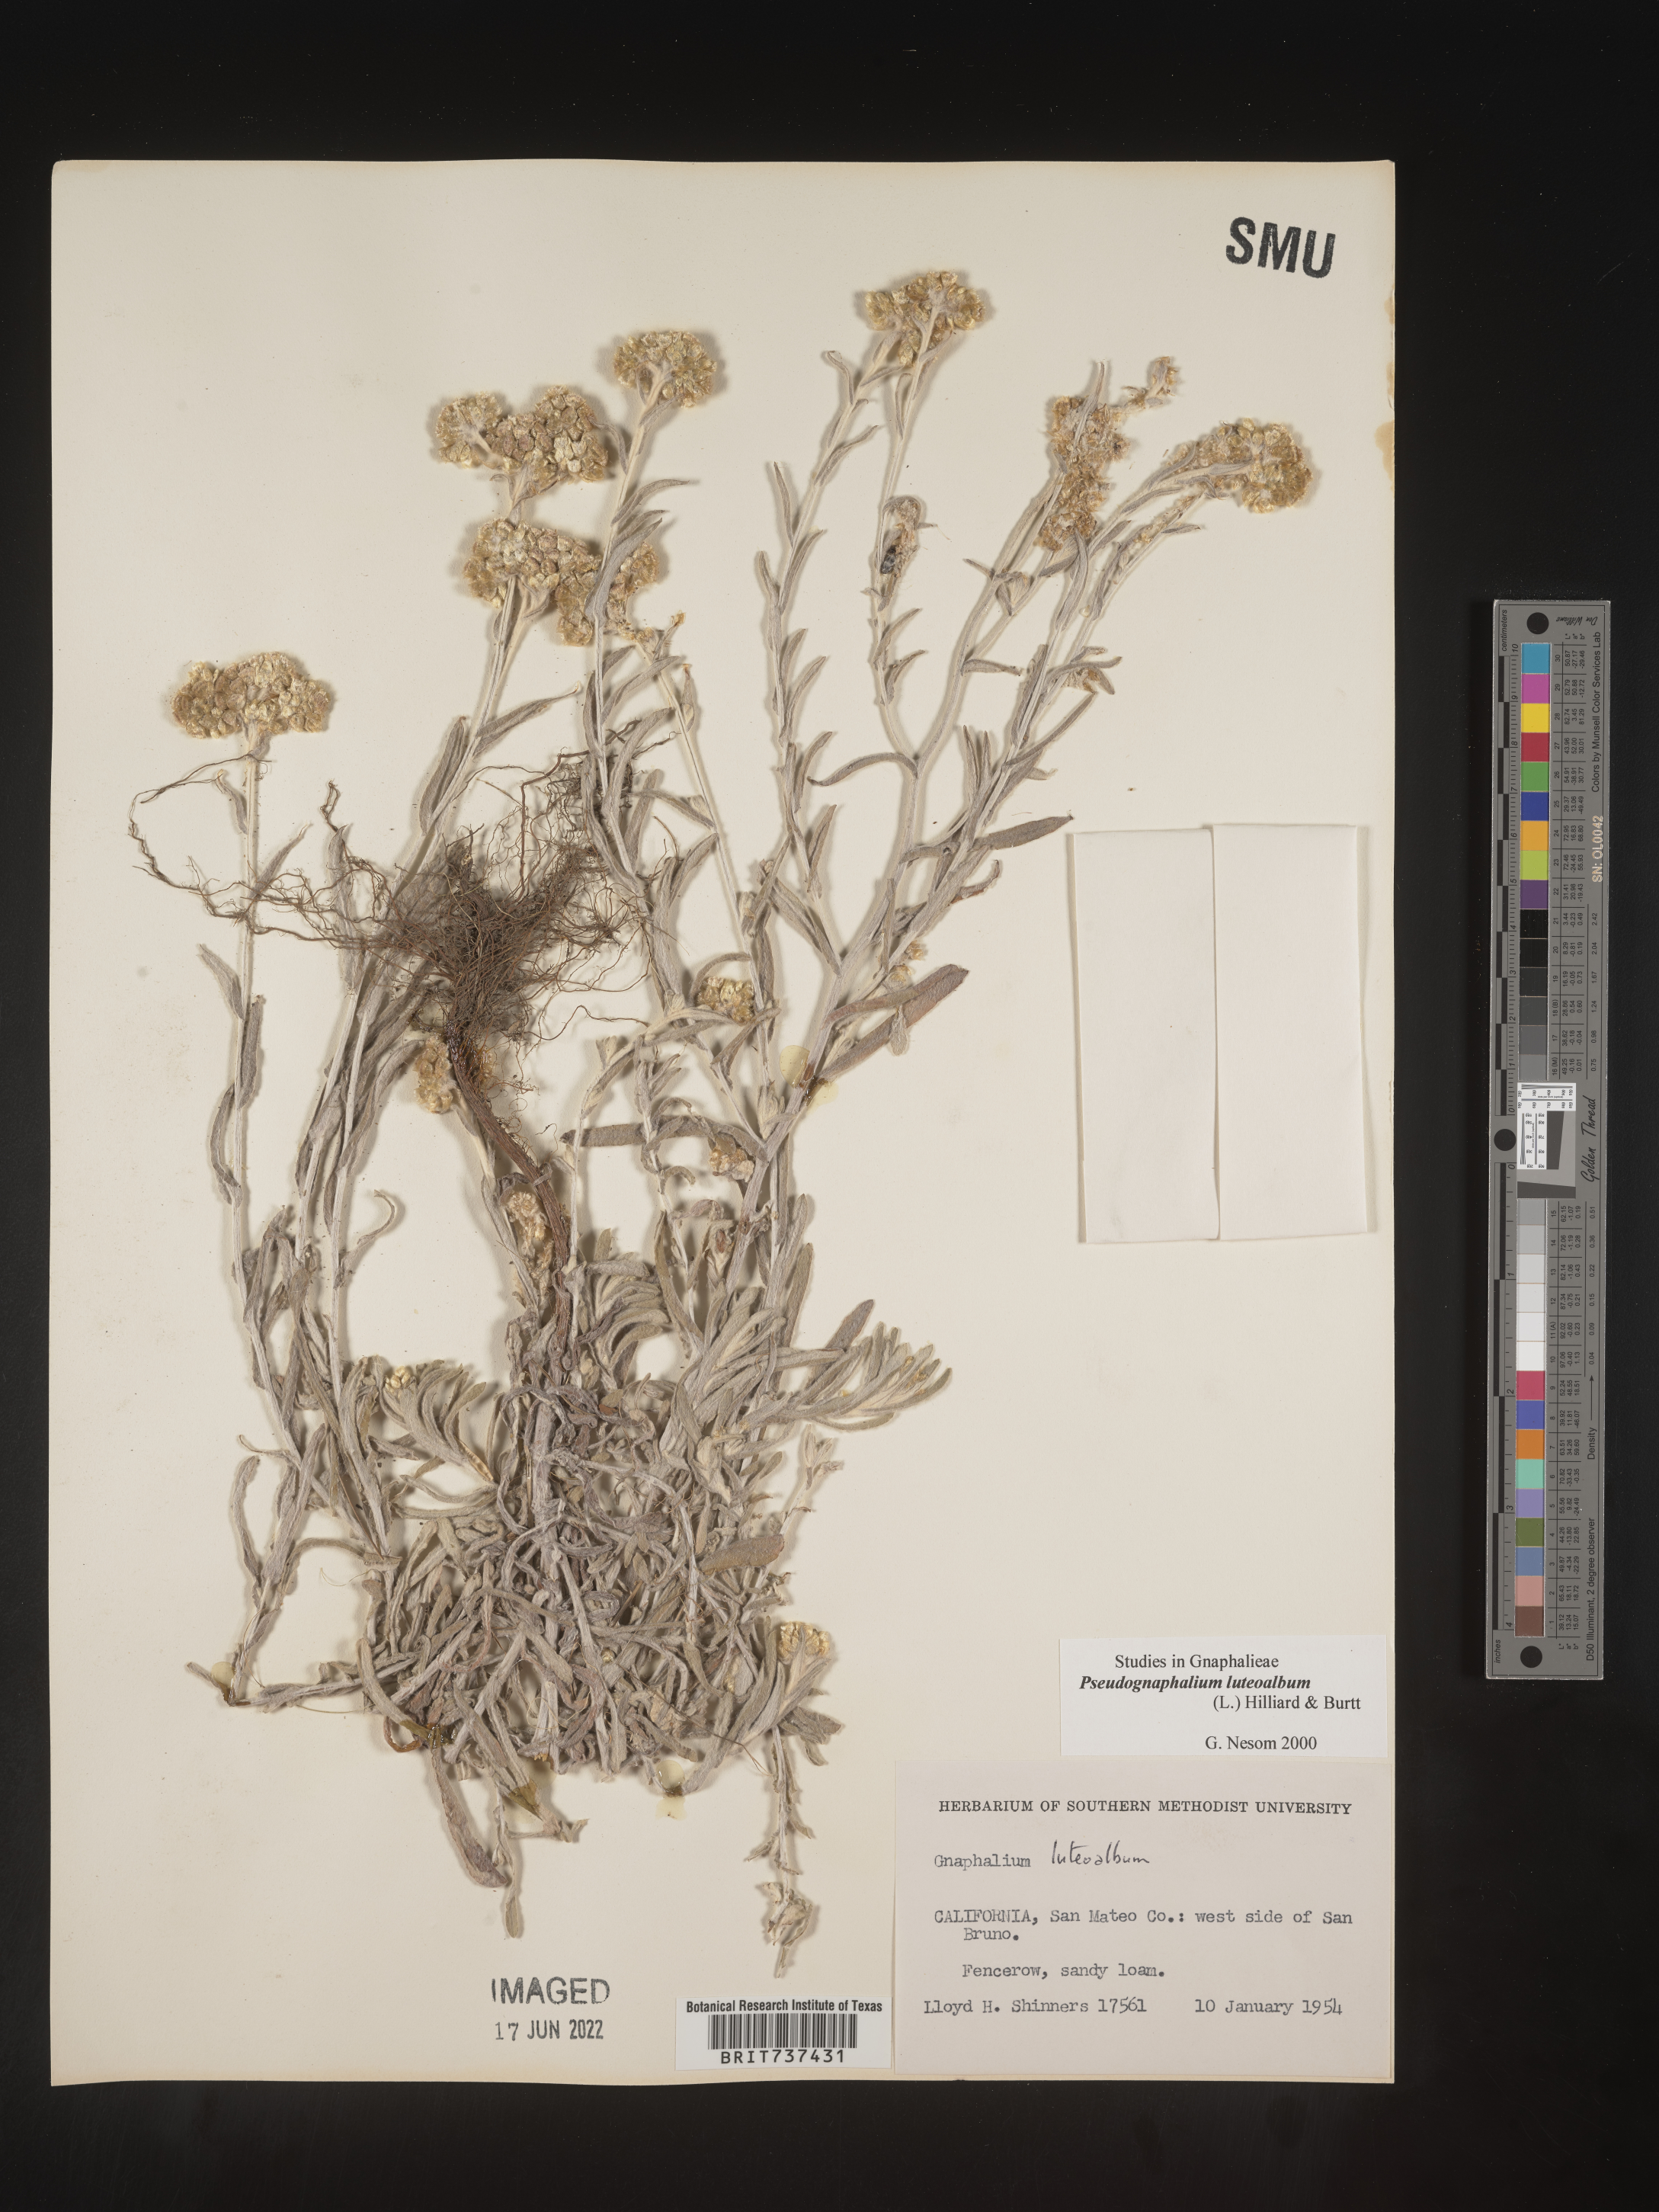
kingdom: Plantae
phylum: Tracheophyta
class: Magnoliopsida
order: Asterales
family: Asteraceae
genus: Helichrysum
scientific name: Helichrysum luteoalbum
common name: Daisy
